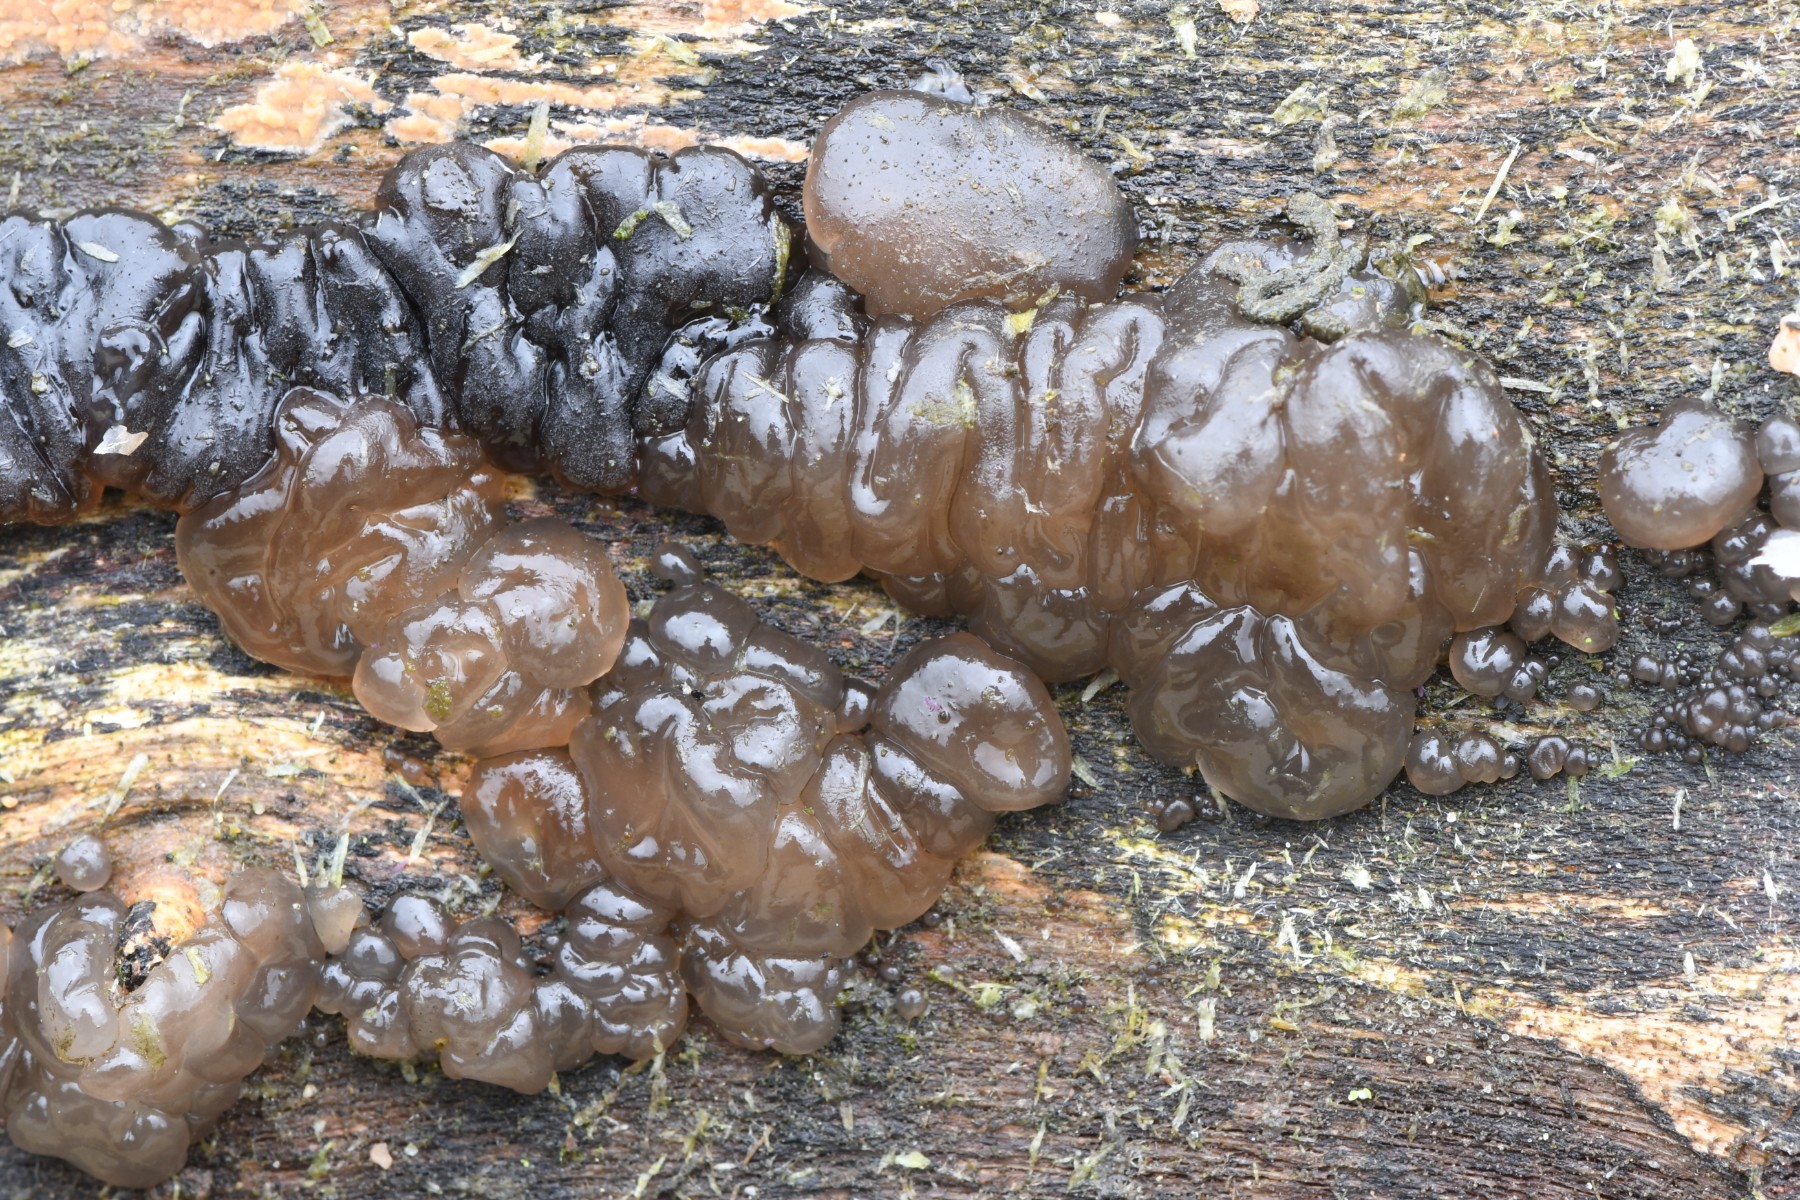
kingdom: Fungi
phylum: Basidiomycota
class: Agaricomycetes
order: Auriculariales
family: Auriculariaceae
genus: Exidia
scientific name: Exidia nigricans
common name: almindelig bævretop
